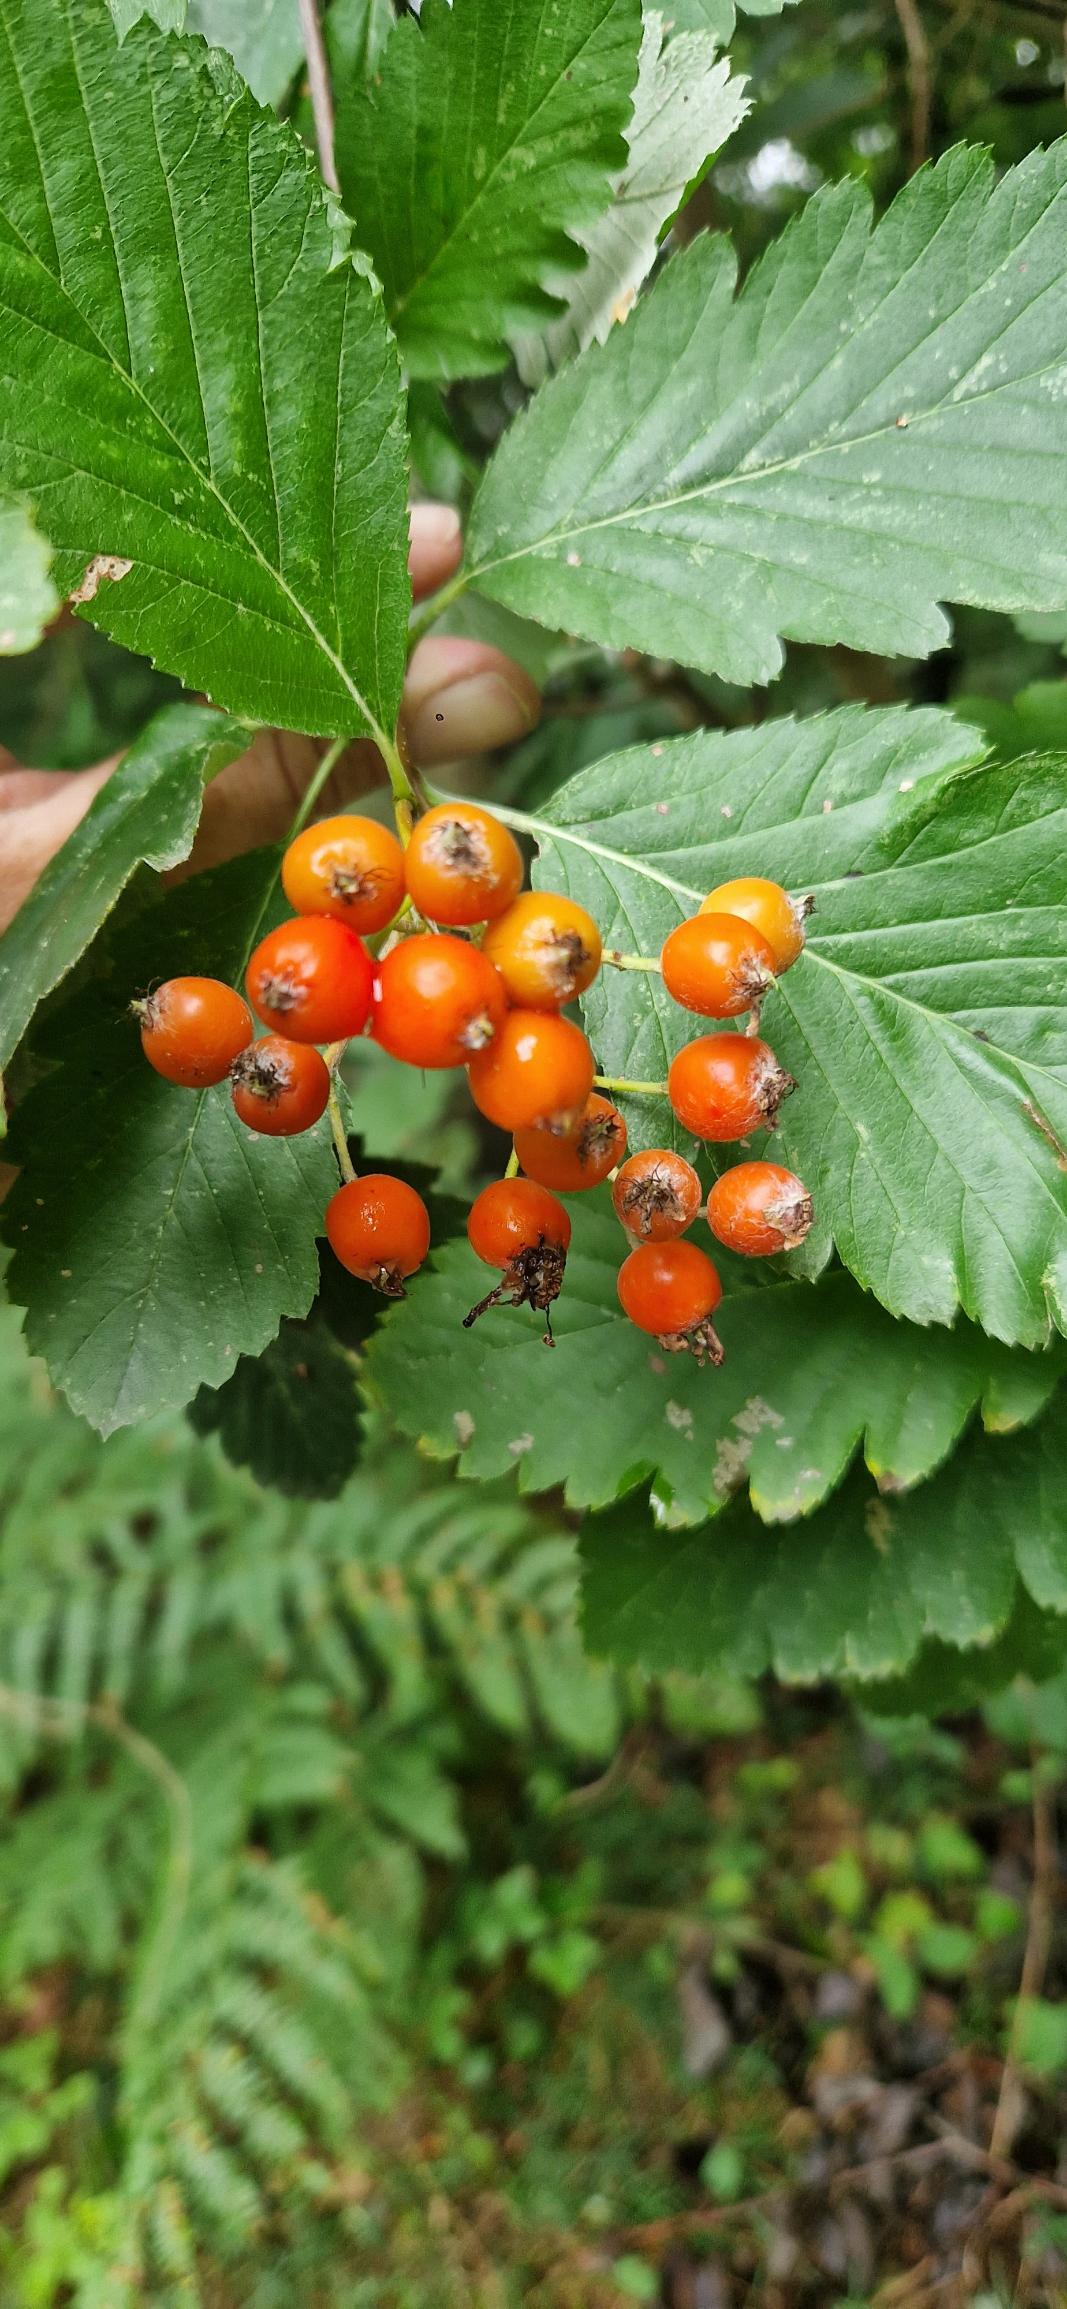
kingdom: Plantae
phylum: Tracheophyta
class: Magnoliopsida
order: Rosales
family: Rosaceae
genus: Hedlundia
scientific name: Hedlundia mougeotii
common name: Pyrenæisk røn
